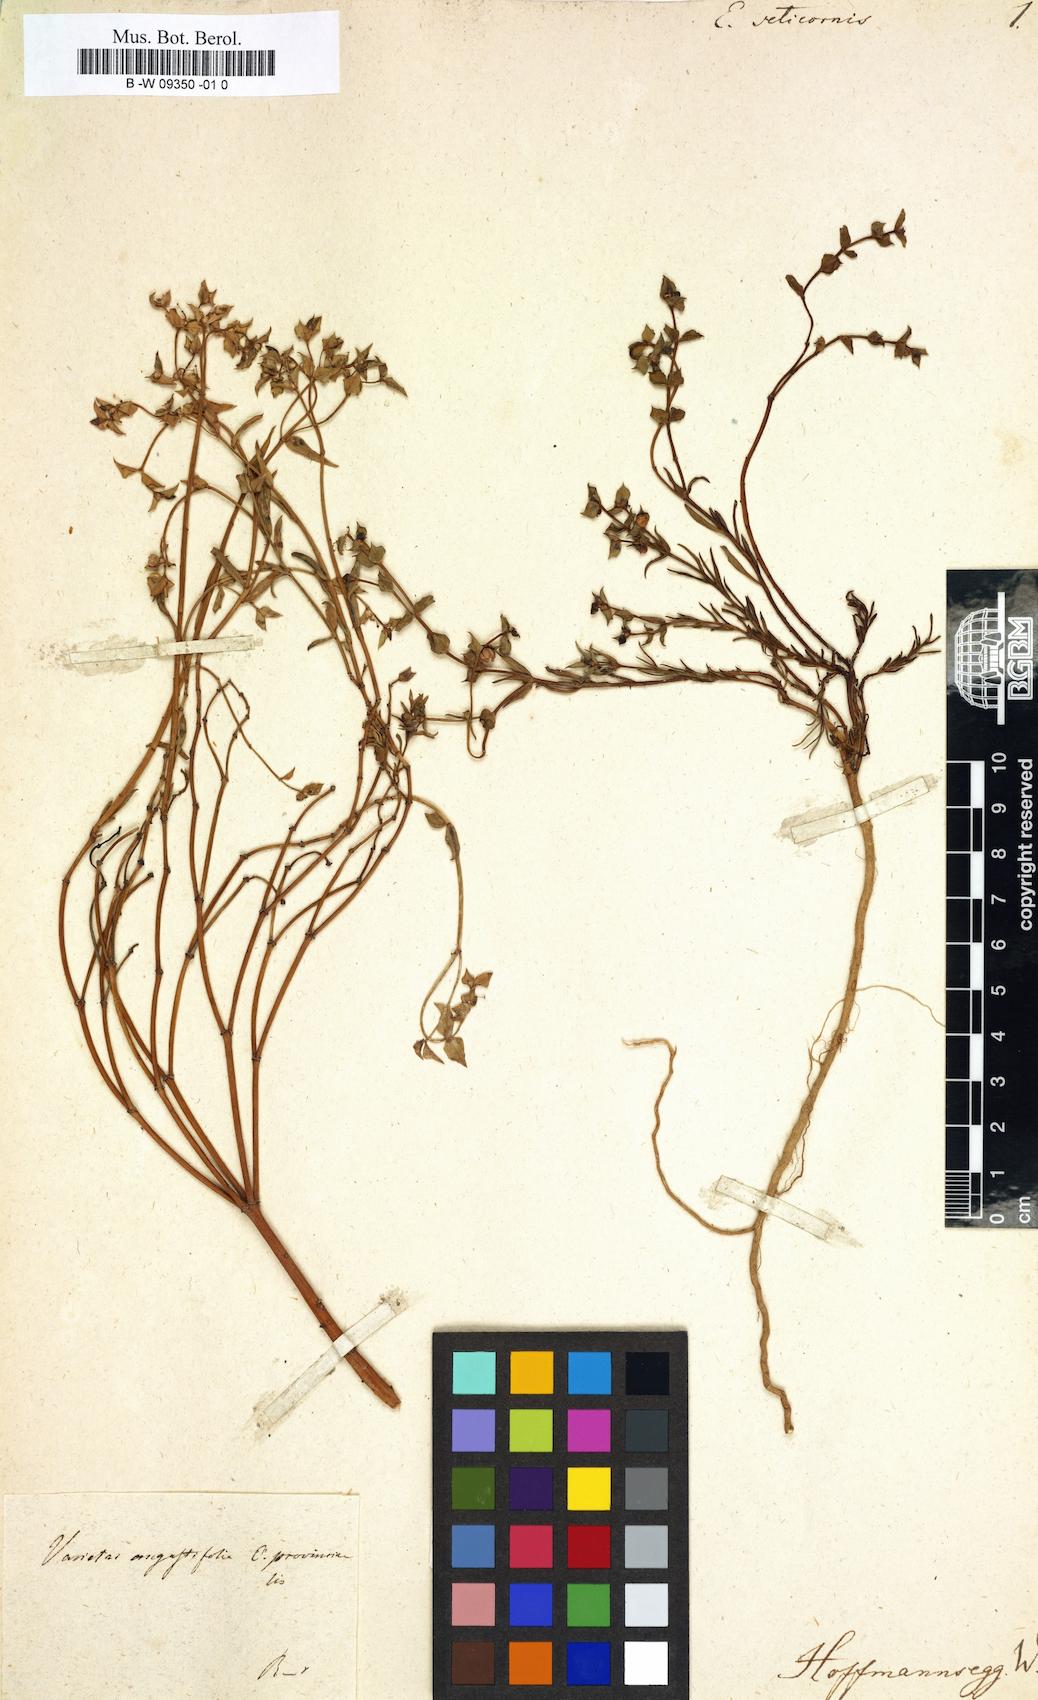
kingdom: Plantae
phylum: Tracheophyta
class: Magnoliopsida
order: Malpighiales
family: Euphorbiaceae
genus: Euphorbia
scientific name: Euphorbia terracina
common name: Geraldton carnation weed
